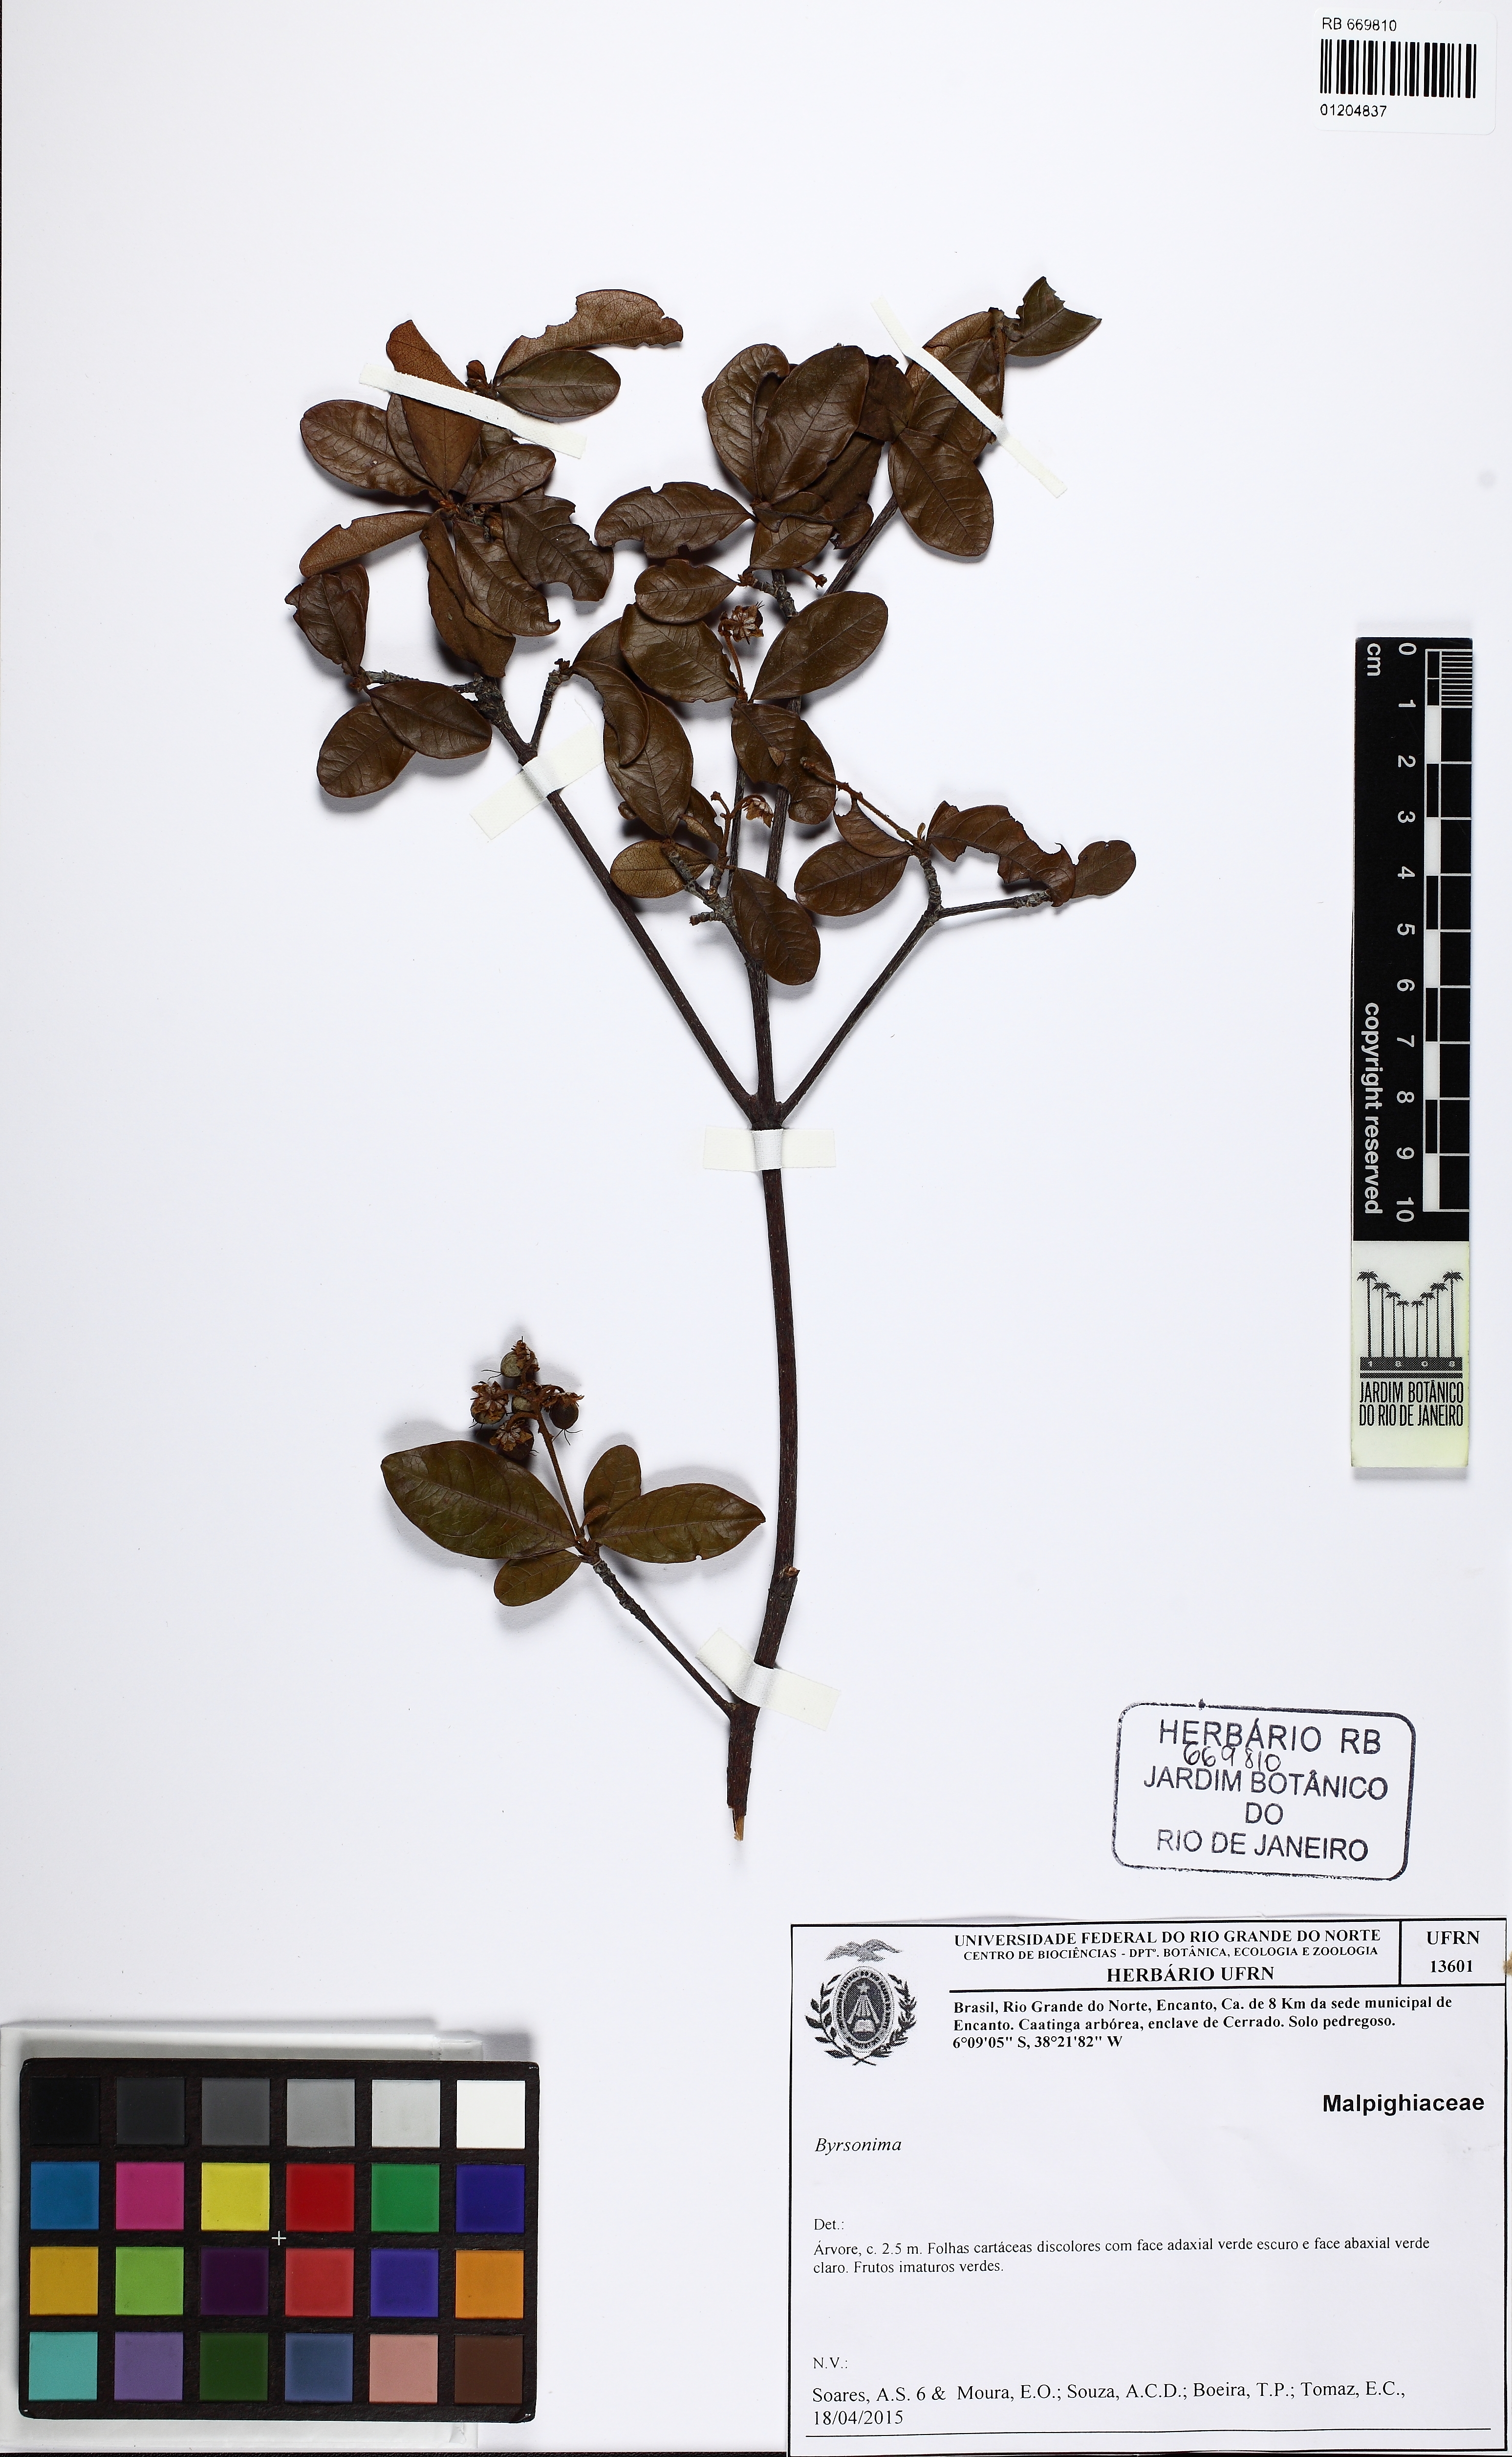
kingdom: Plantae
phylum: Tracheophyta
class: Magnoliopsida
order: Malpighiales
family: Malpighiaceae
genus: Byrsonima
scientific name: Byrsonima
